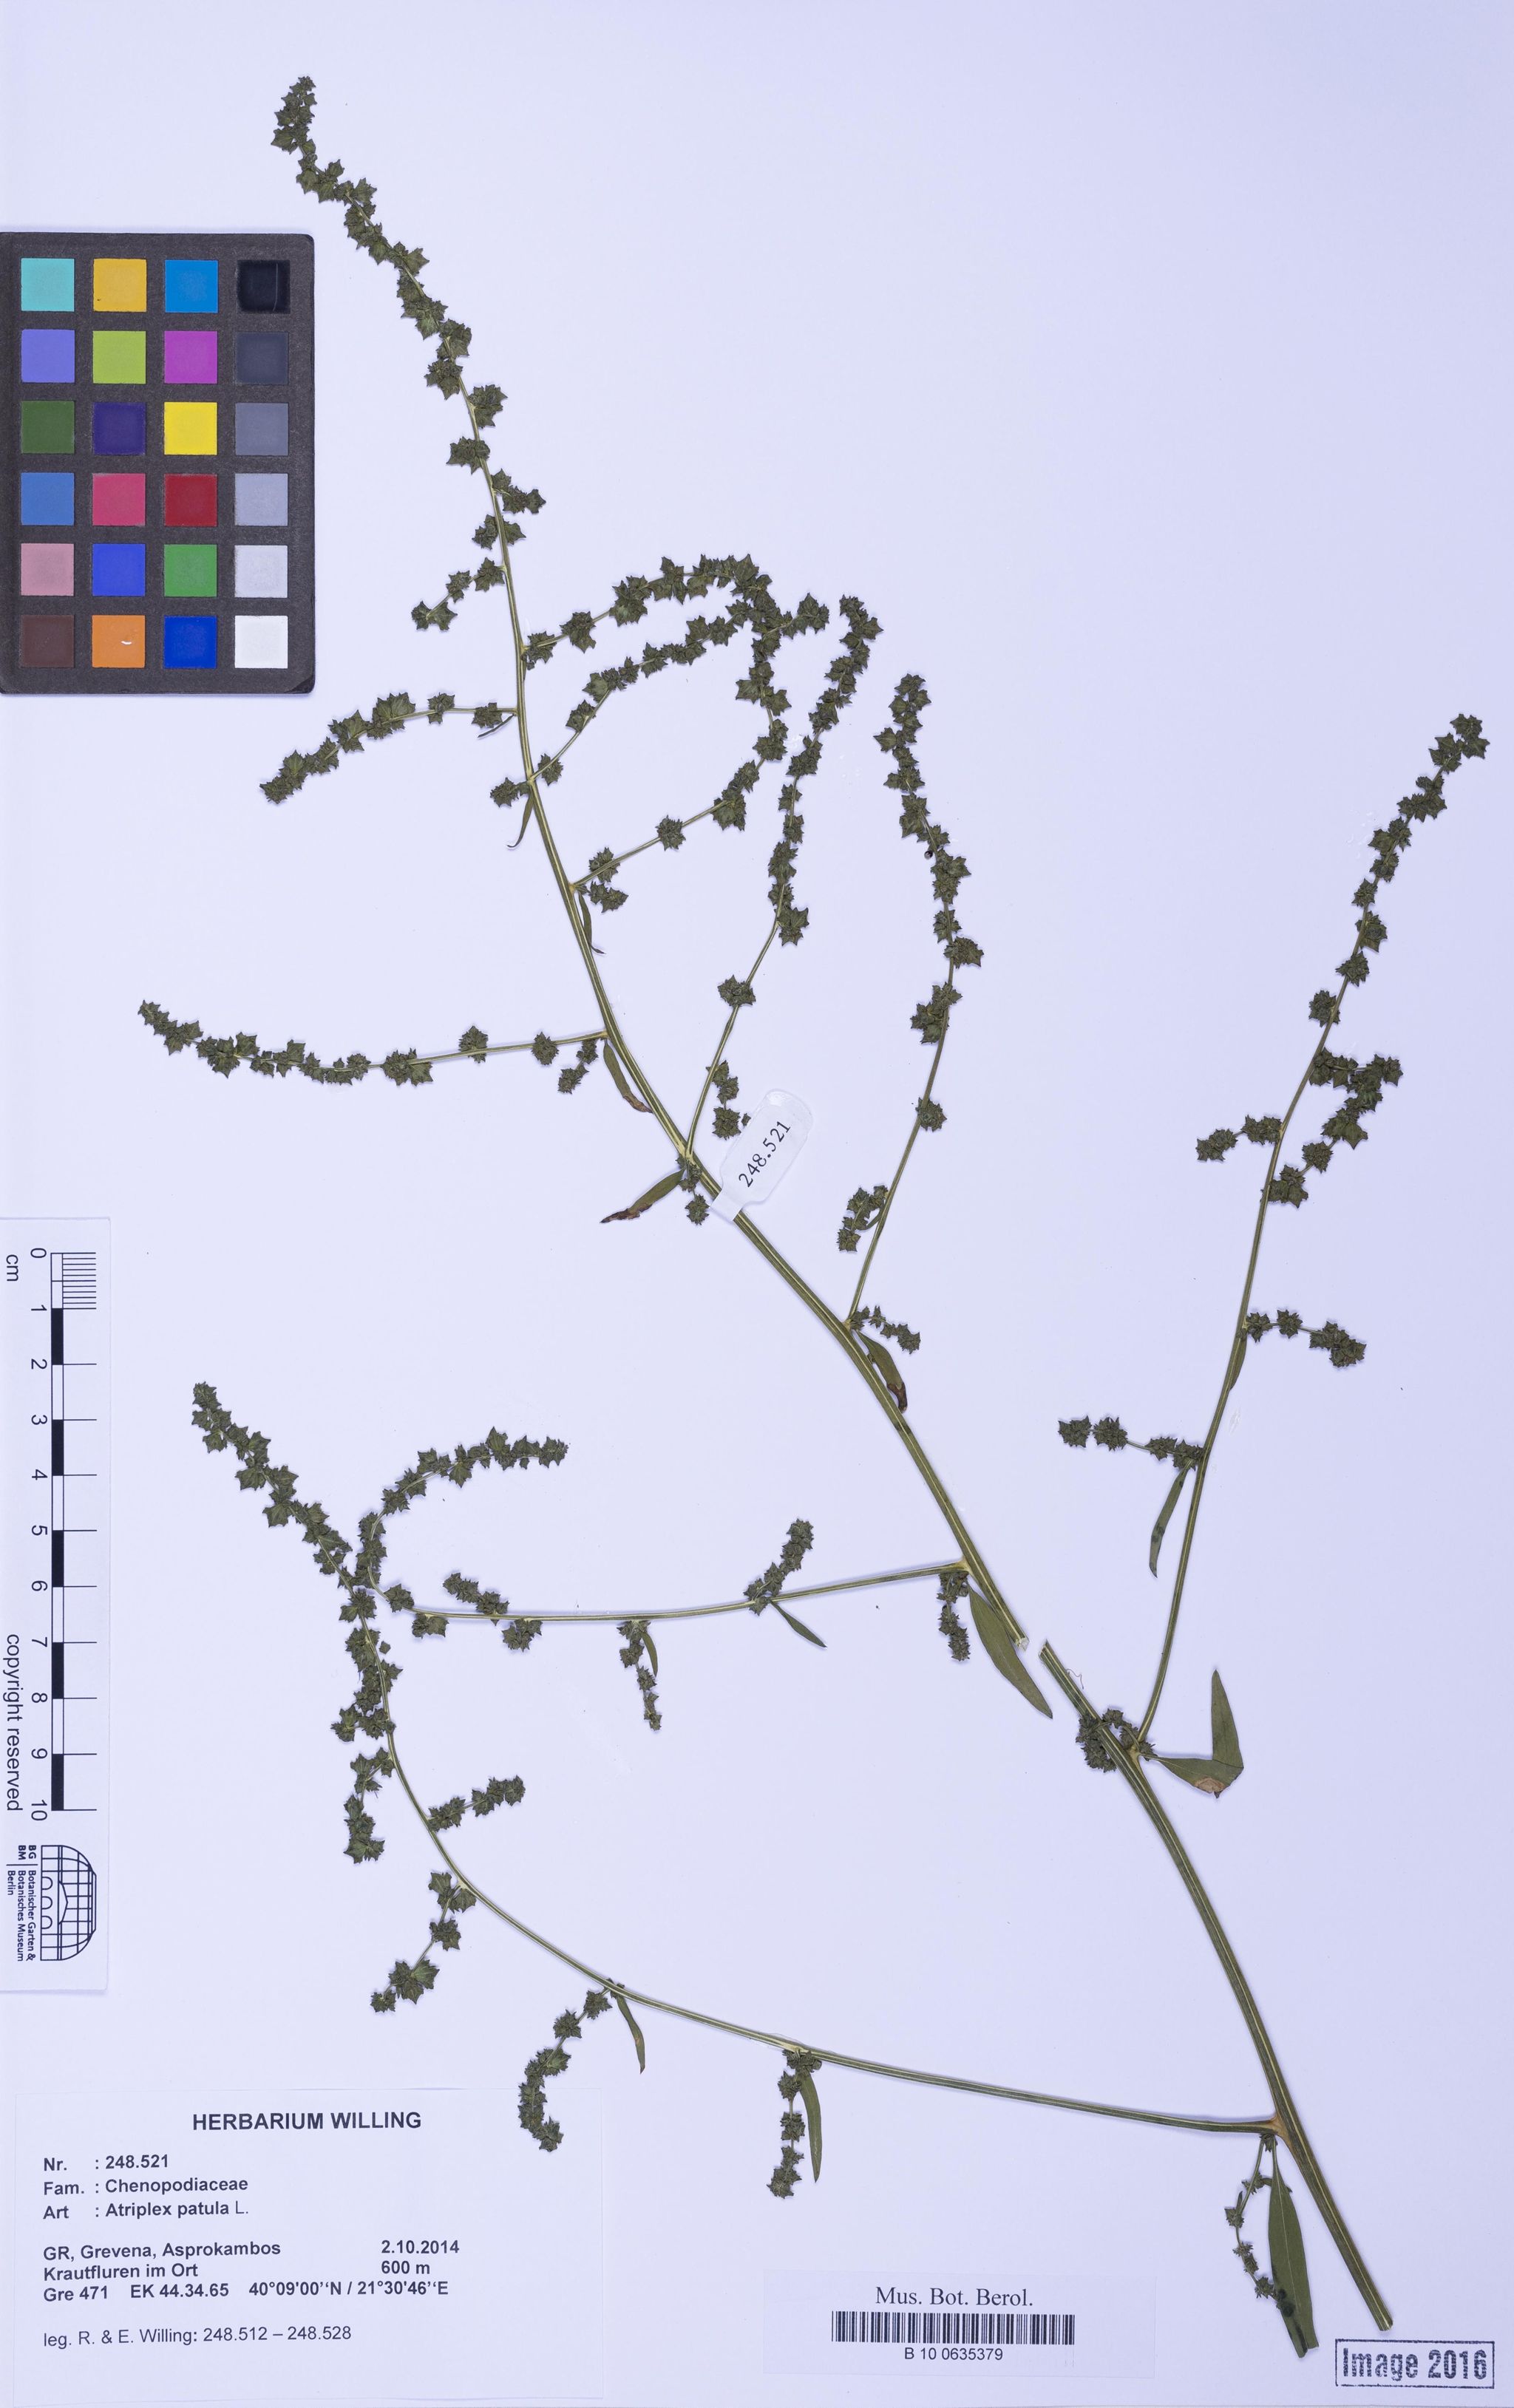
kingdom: Plantae
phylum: Tracheophyta
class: Magnoliopsida
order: Caryophyllales
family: Amaranthaceae
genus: Atriplex
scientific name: Atriplex patula
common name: Common orache
